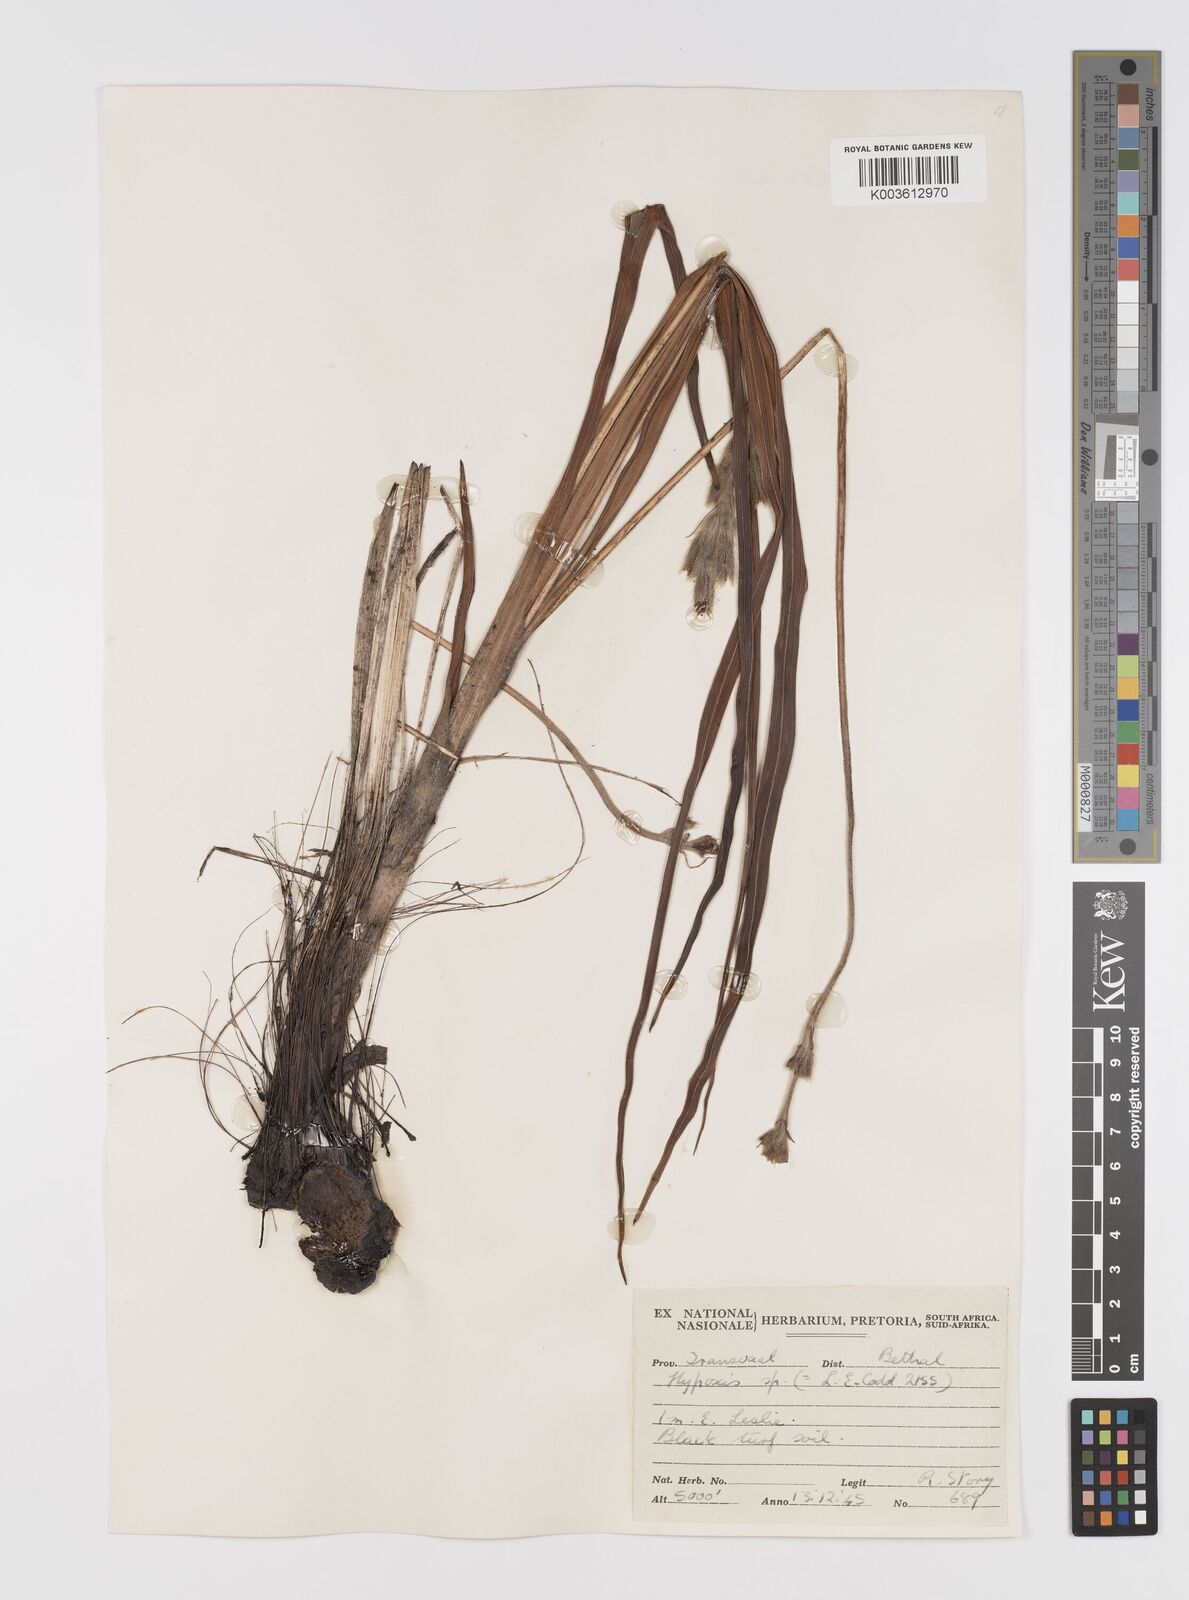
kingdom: Plantae
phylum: Tracheophyta
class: Liliopsida
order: Asparagales
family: Hypoxidaceae
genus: Hypoxis
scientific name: Hypoxis rigidula
